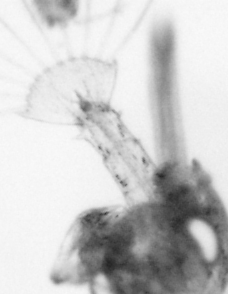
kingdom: Animalia
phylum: Arthropoda
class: Copepoda
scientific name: Copepoda
